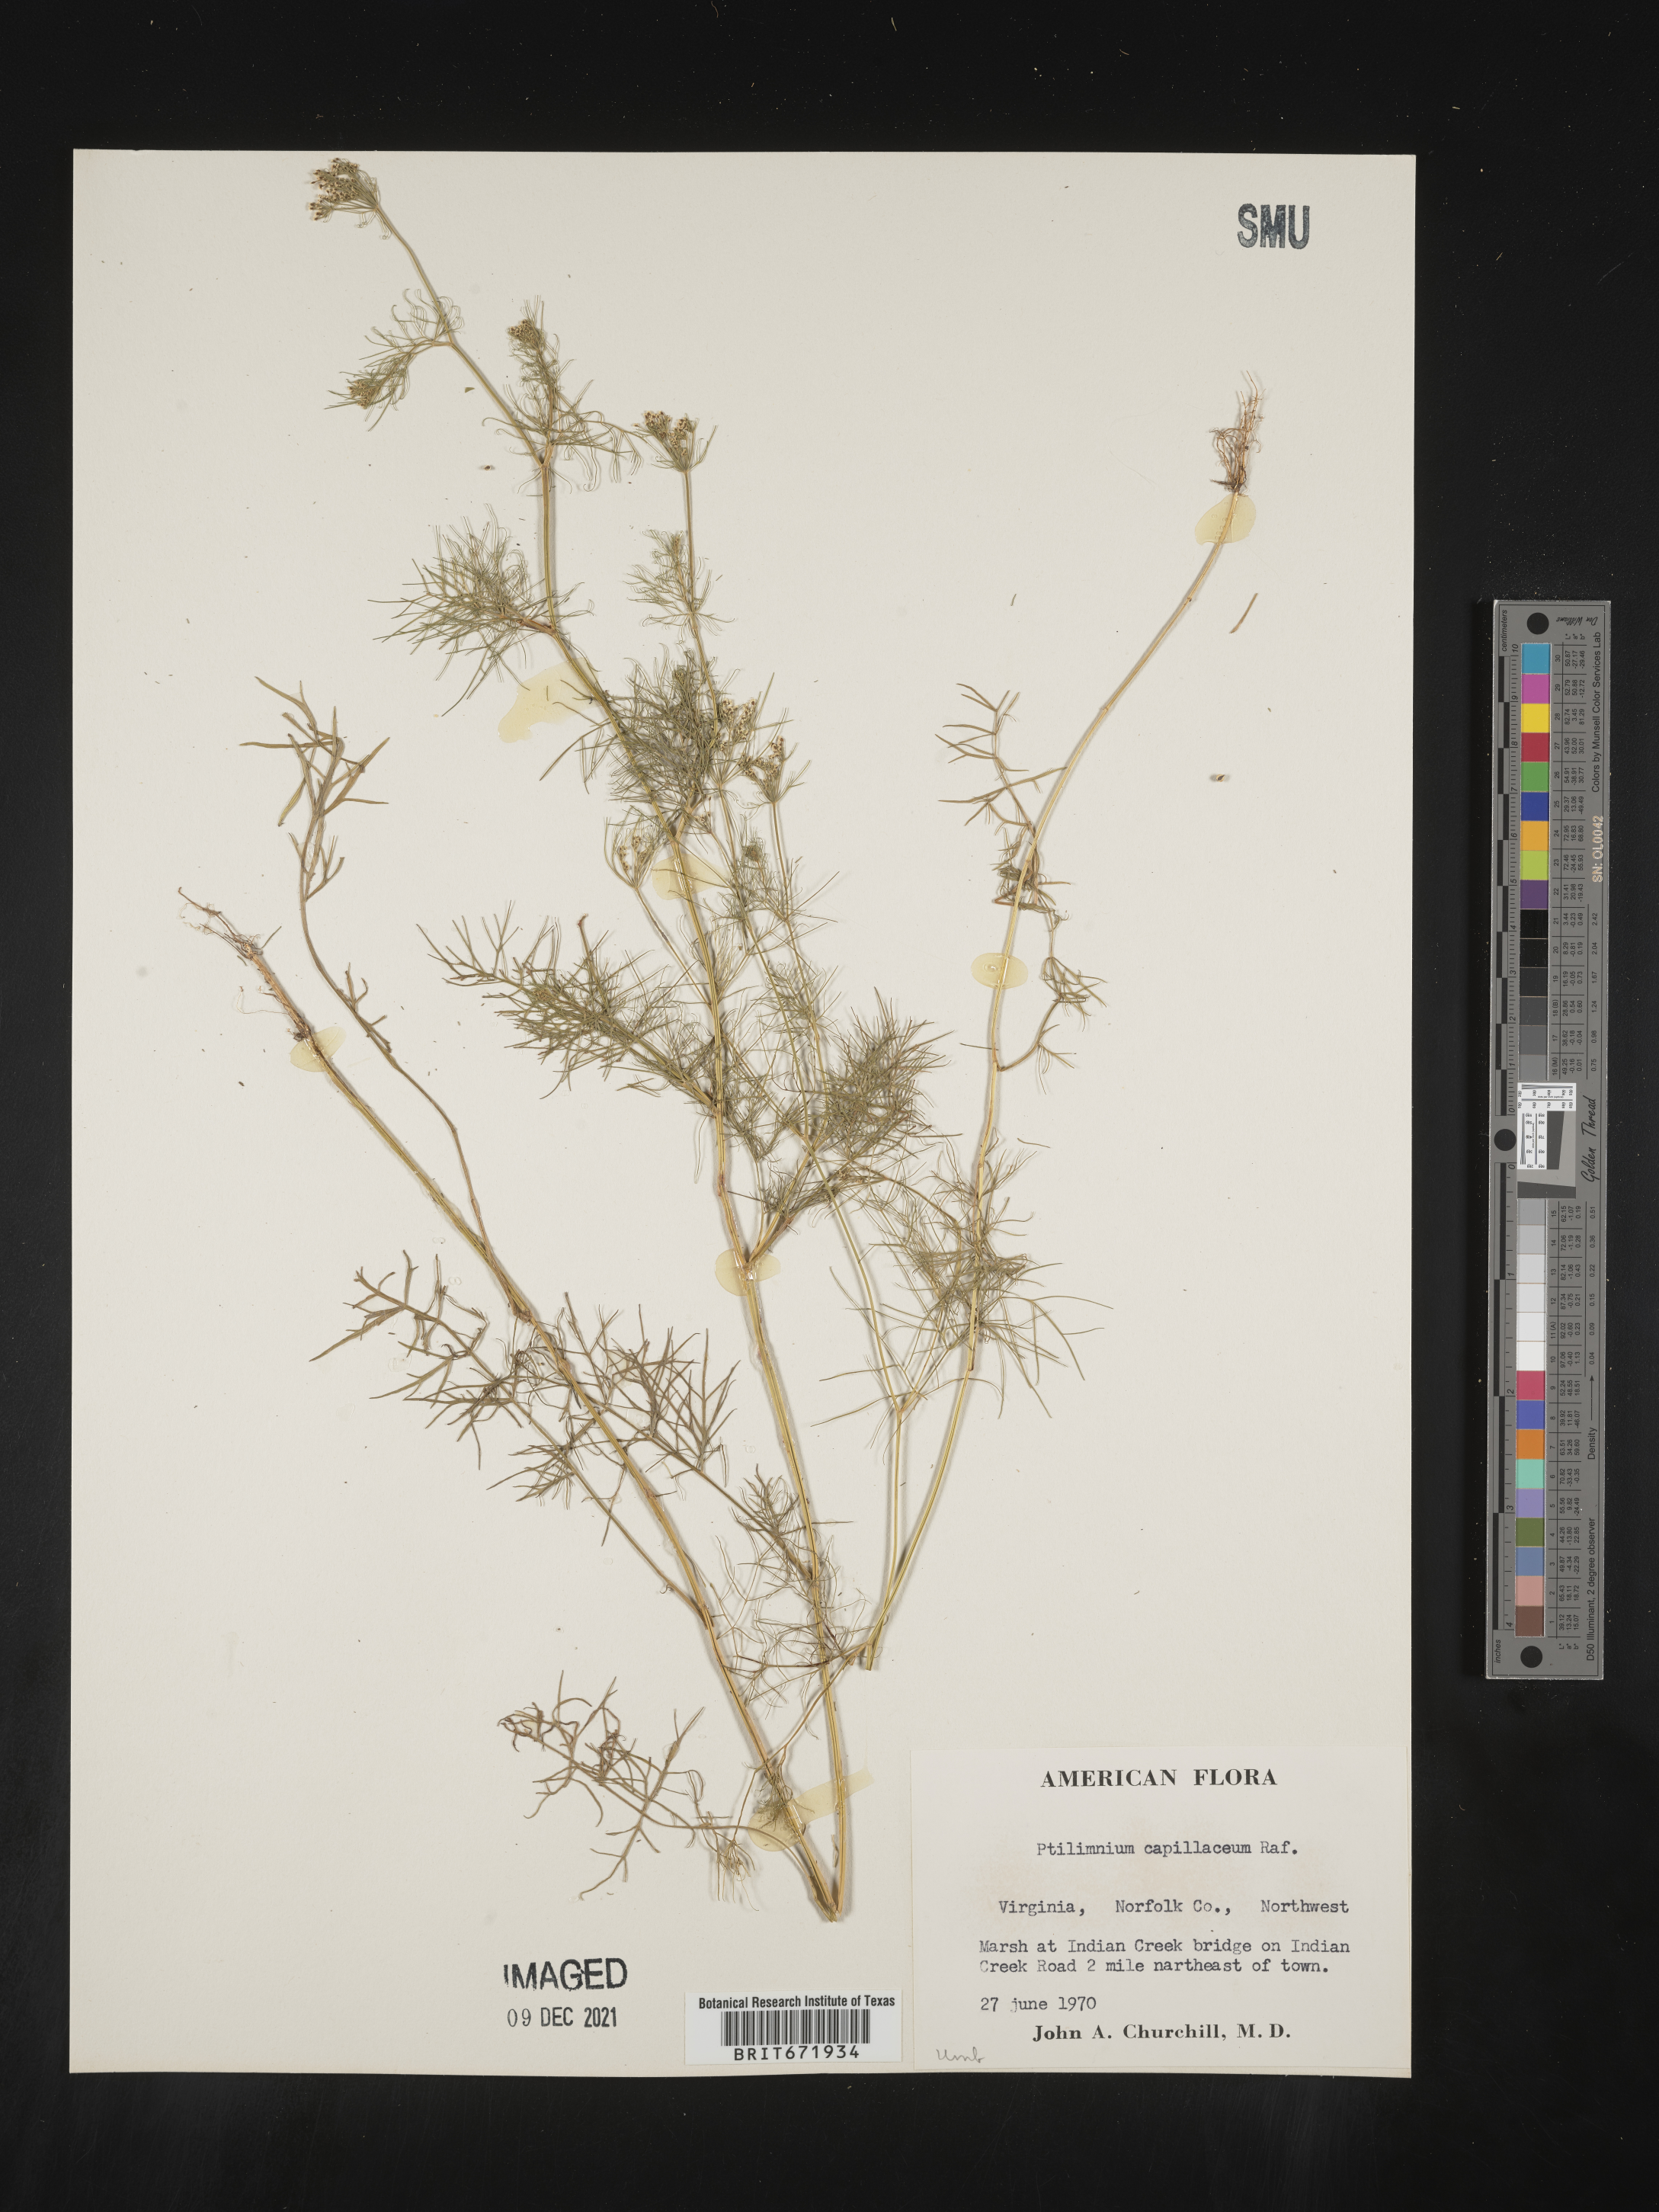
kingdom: Plantae
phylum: Tracheophyta
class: Magnoliopsida
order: Apiales
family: Apiaceae
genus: Ptilimnium
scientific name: Ptilimnium capillaceum
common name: Herbwilliam
